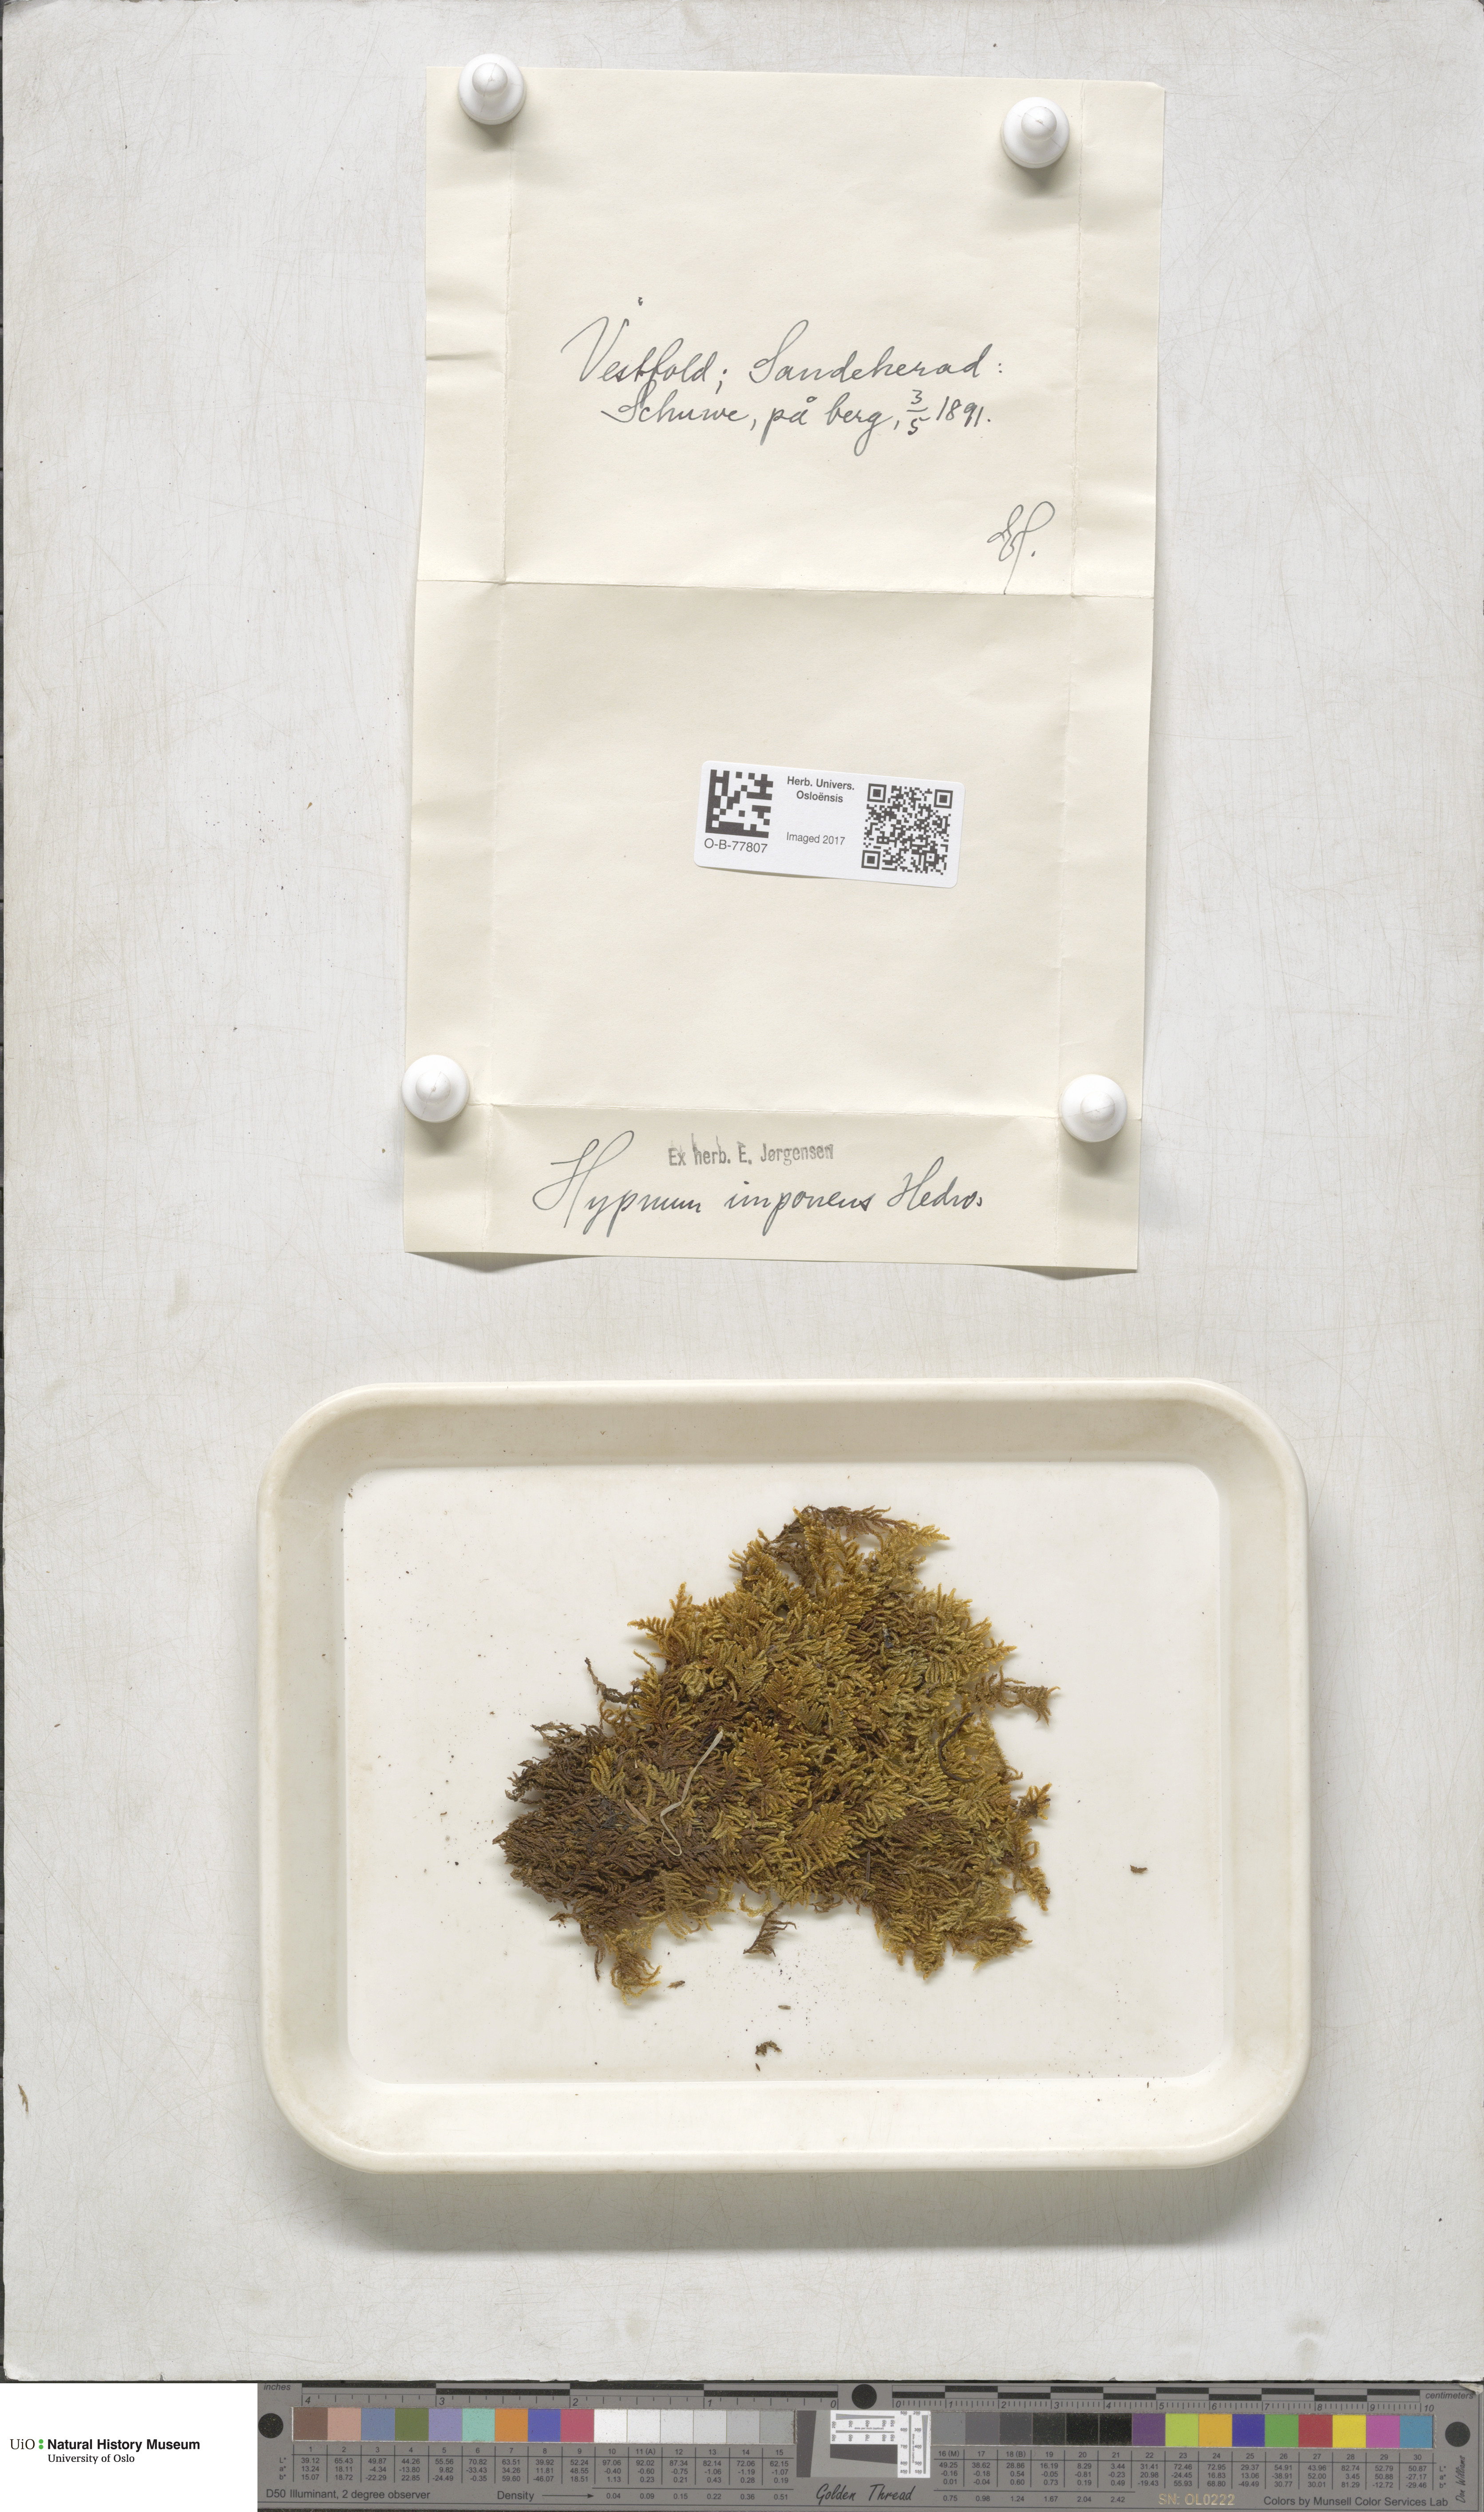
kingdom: Plantae
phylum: Bryophyta
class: Bryopsida
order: Hypnales
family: Callicladiaceae
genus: Callicladium
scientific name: Callicladium imponens
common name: Brocade moss
